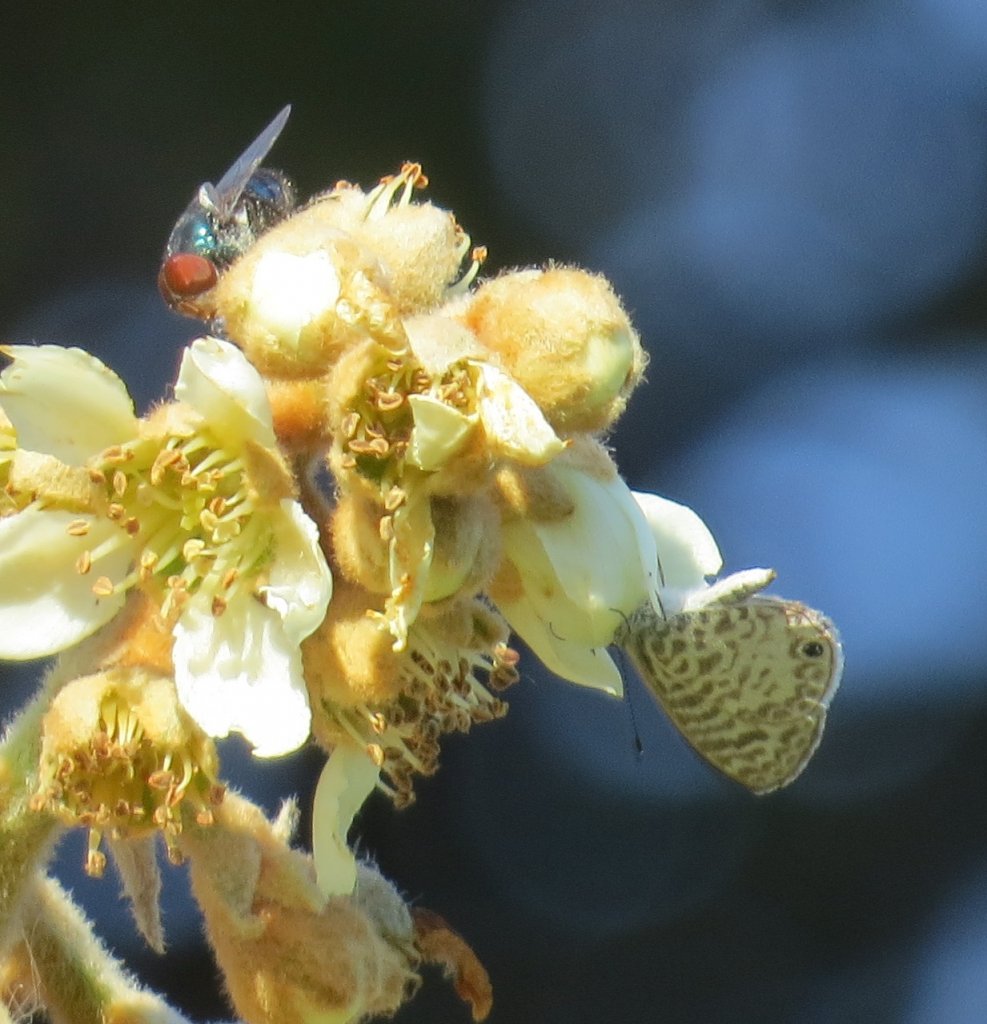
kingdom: Animalia
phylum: Arthropoda
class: Insecta
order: Lepidoptera
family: Lycaenidae
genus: Leptotes
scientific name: Leptotes cassius
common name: Cassius Blue
